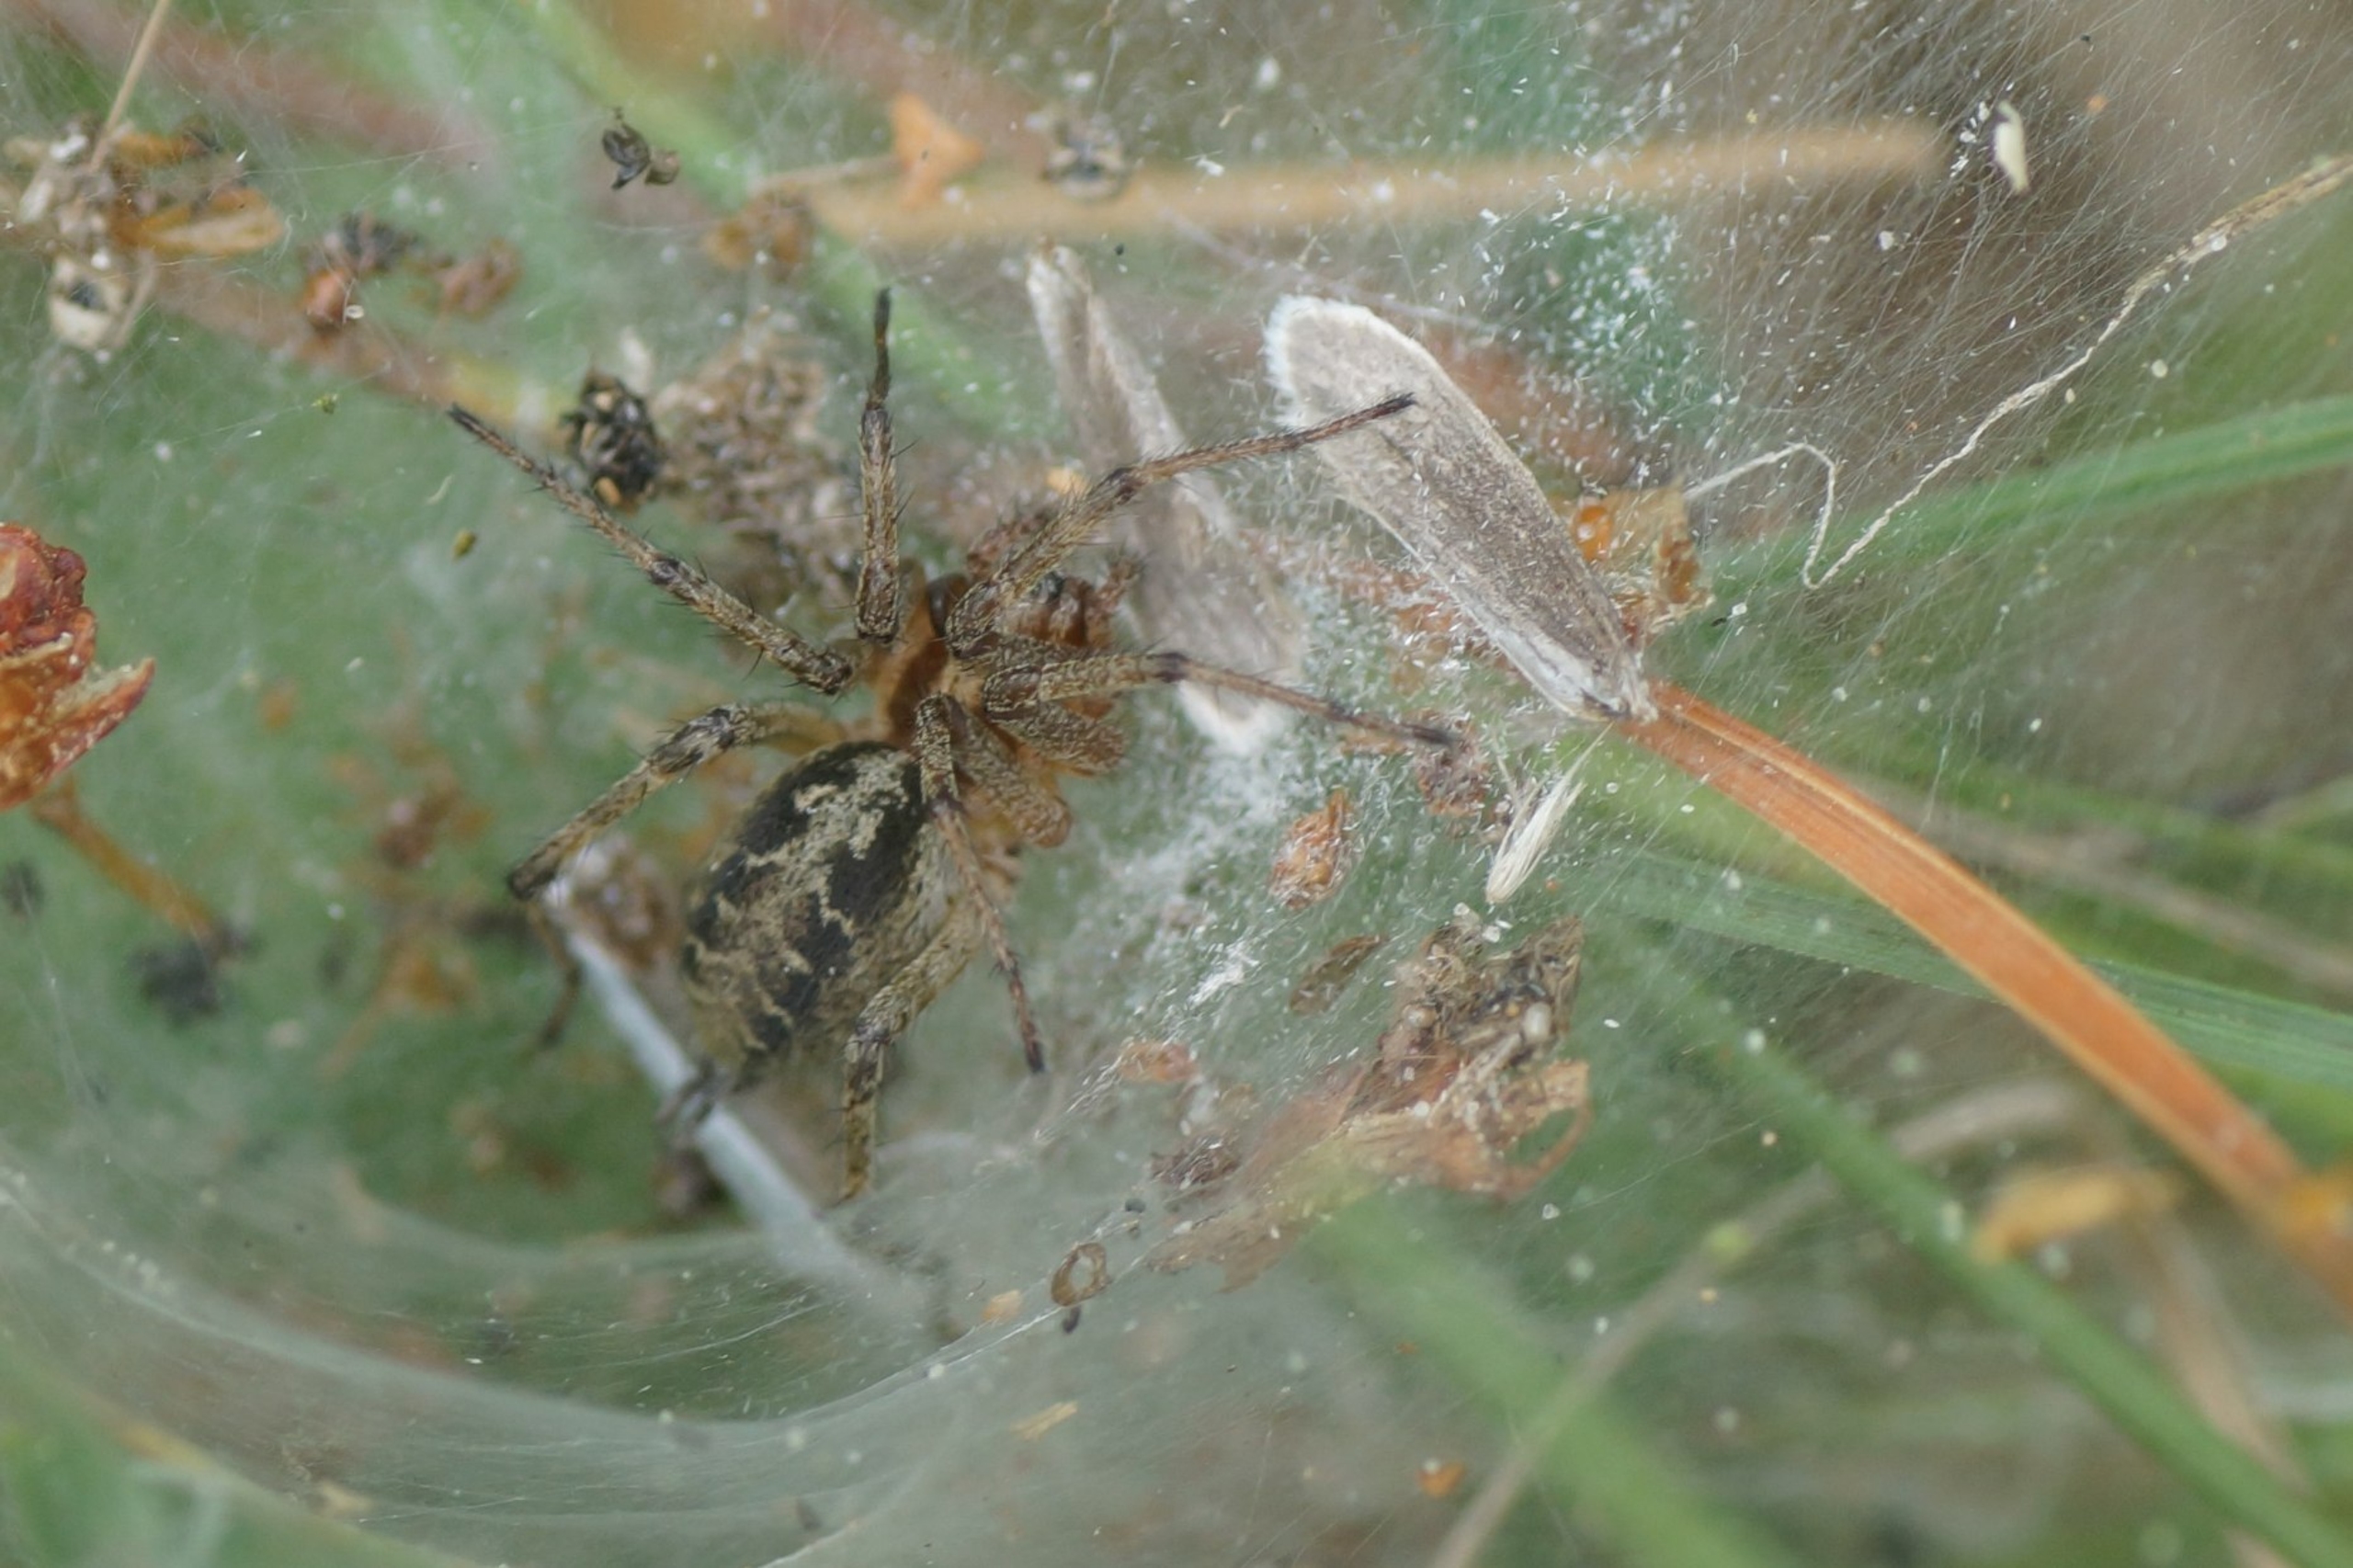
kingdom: Animalia
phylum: Arthropoda
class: Arachnida
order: Araneae
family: Agelenidae
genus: Agelena
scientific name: Agelena labyrinthica
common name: Labyrintedderkop
